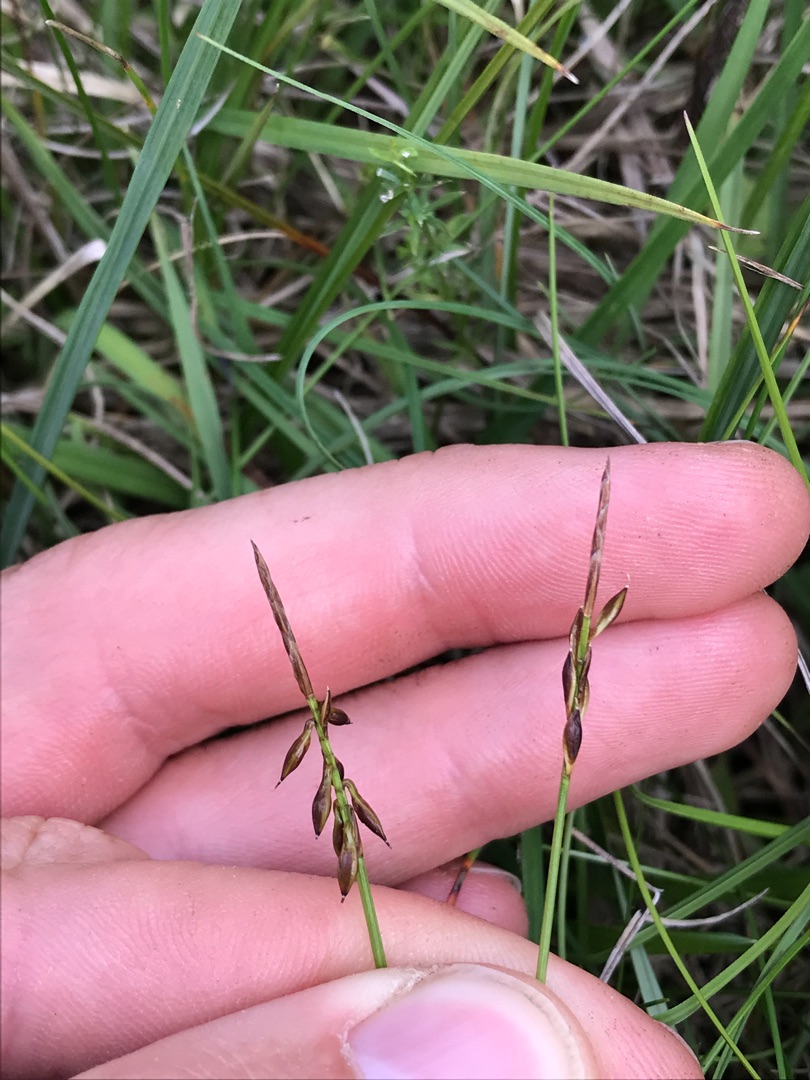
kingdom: Plantae
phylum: Tracheophyta
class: Liliopsida
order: Poales
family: Cyperaceae
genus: Carex
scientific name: Carex pulicaris
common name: Loppe-star
